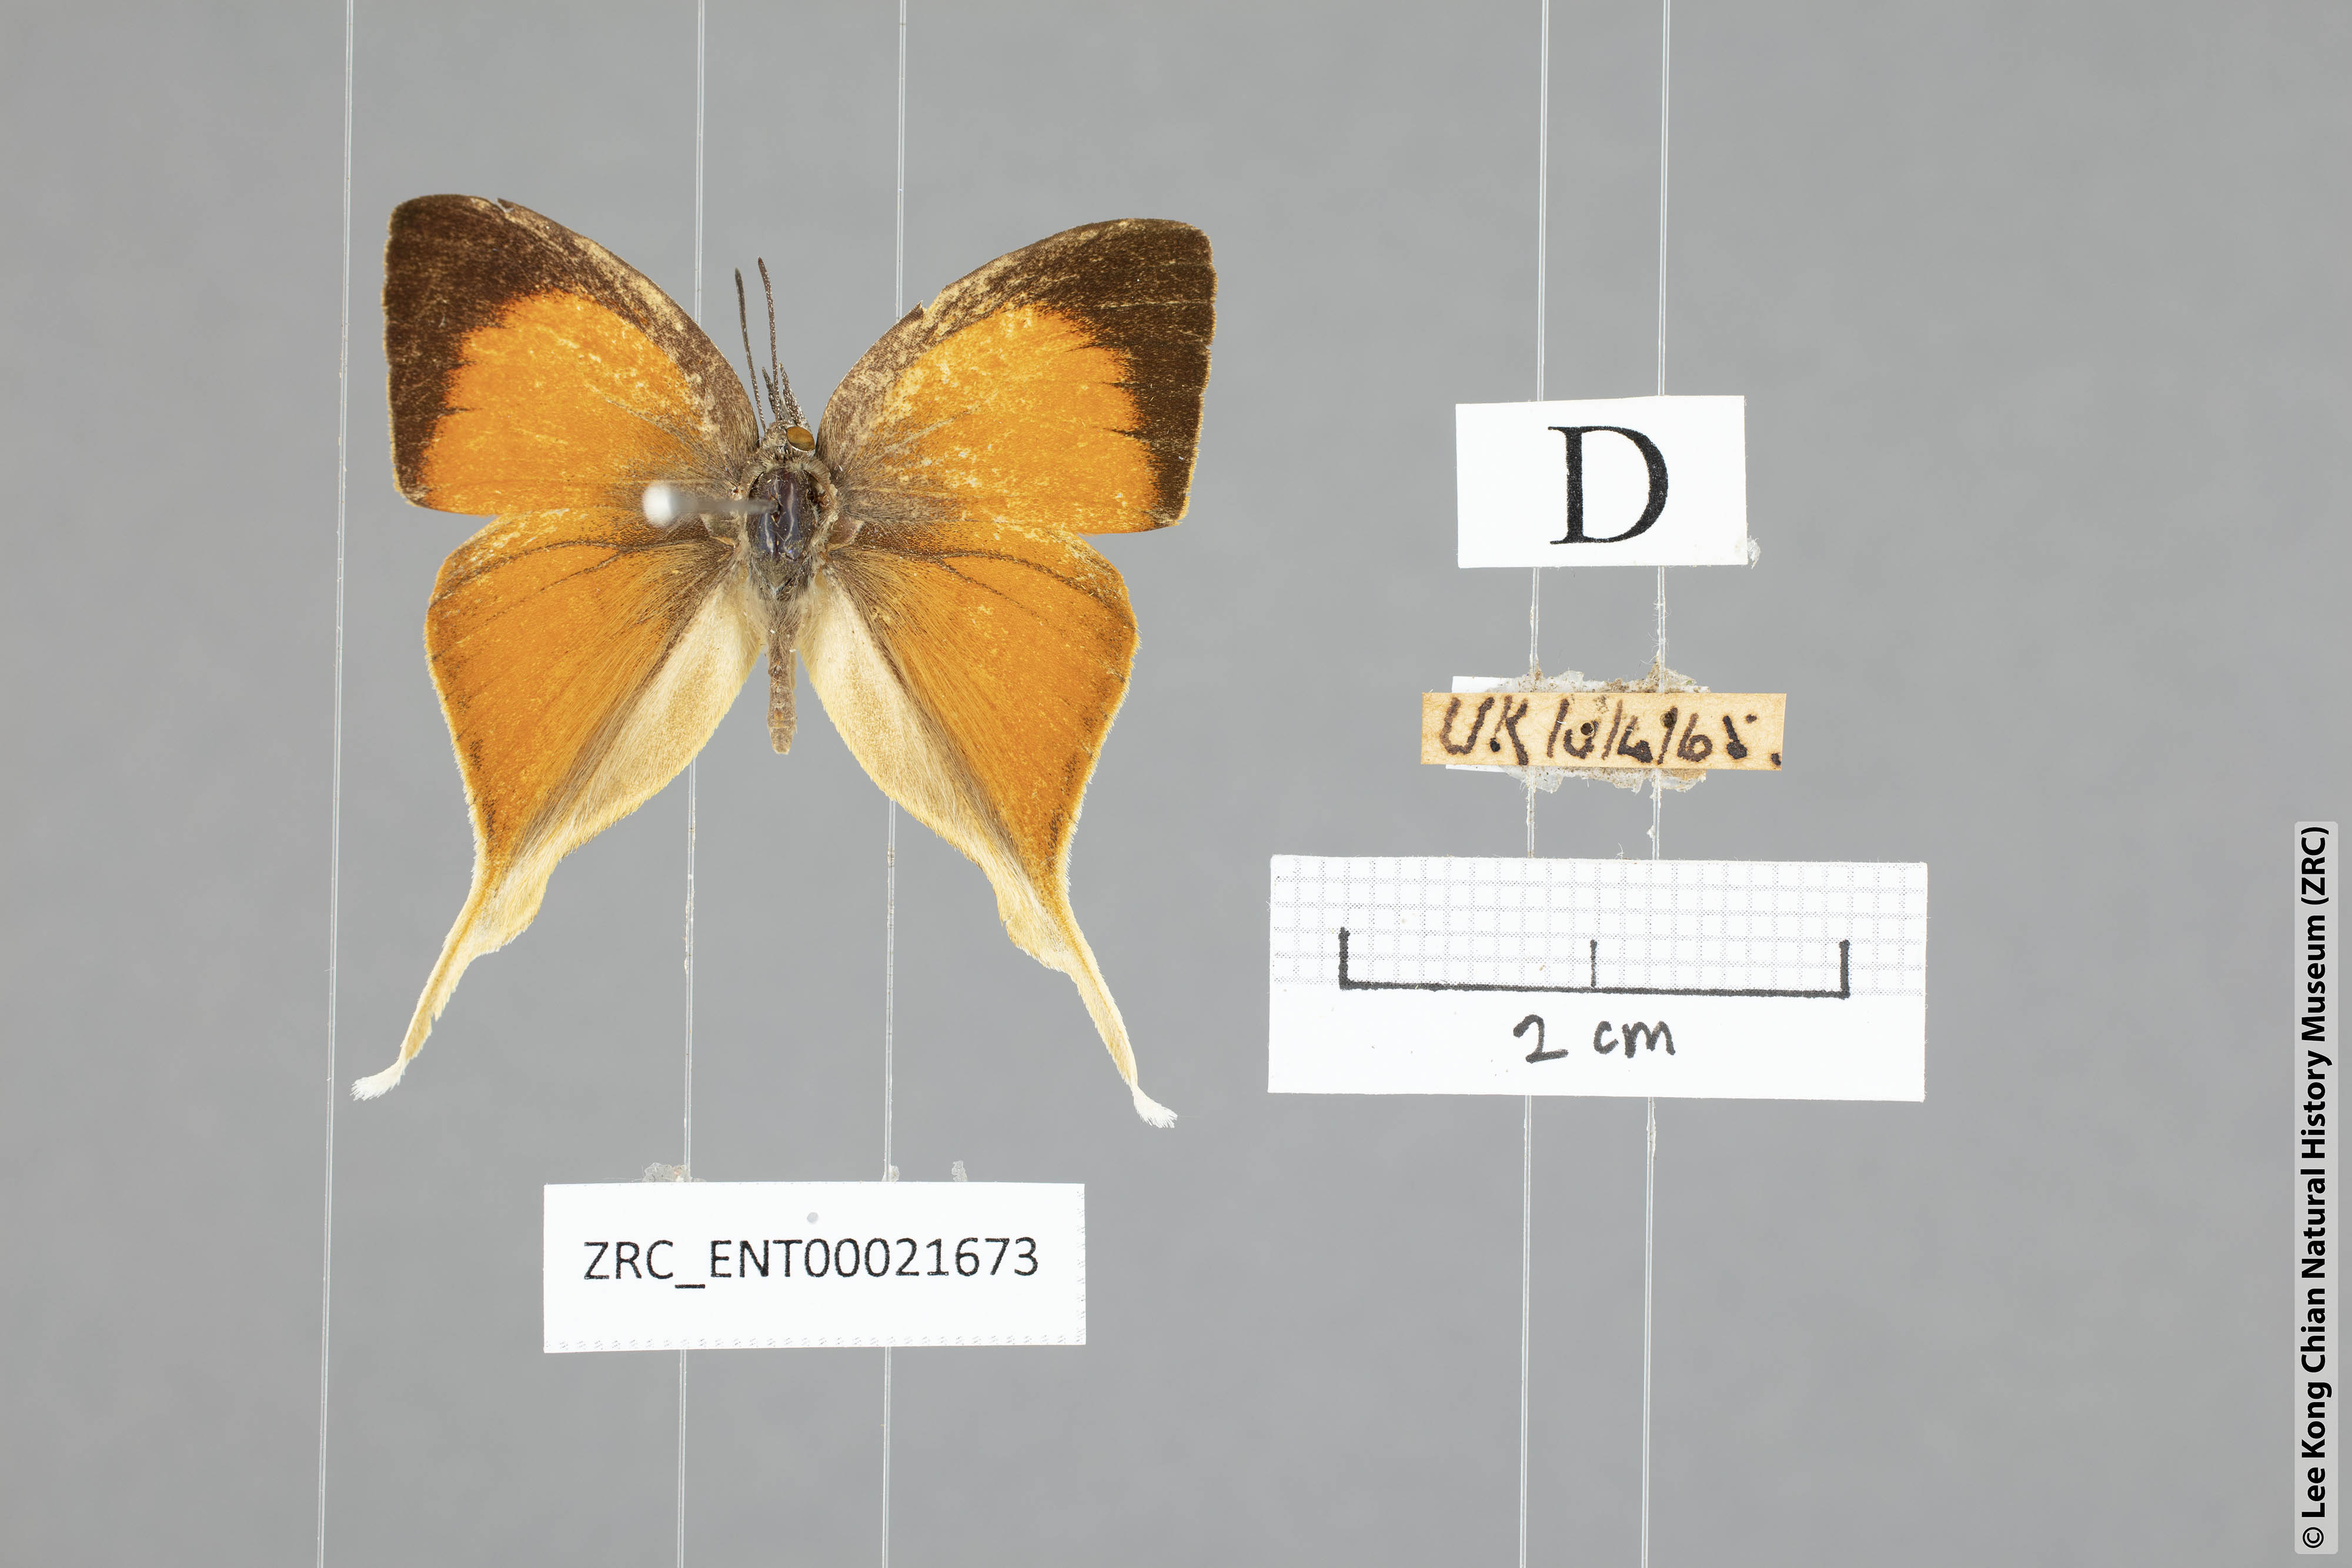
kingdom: Animalia
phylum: Arthropoda
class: Insecta
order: Lepidoptera
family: Lycaenidae
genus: Loxura
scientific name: Loxura cassiopeia
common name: Malayan yamfly
